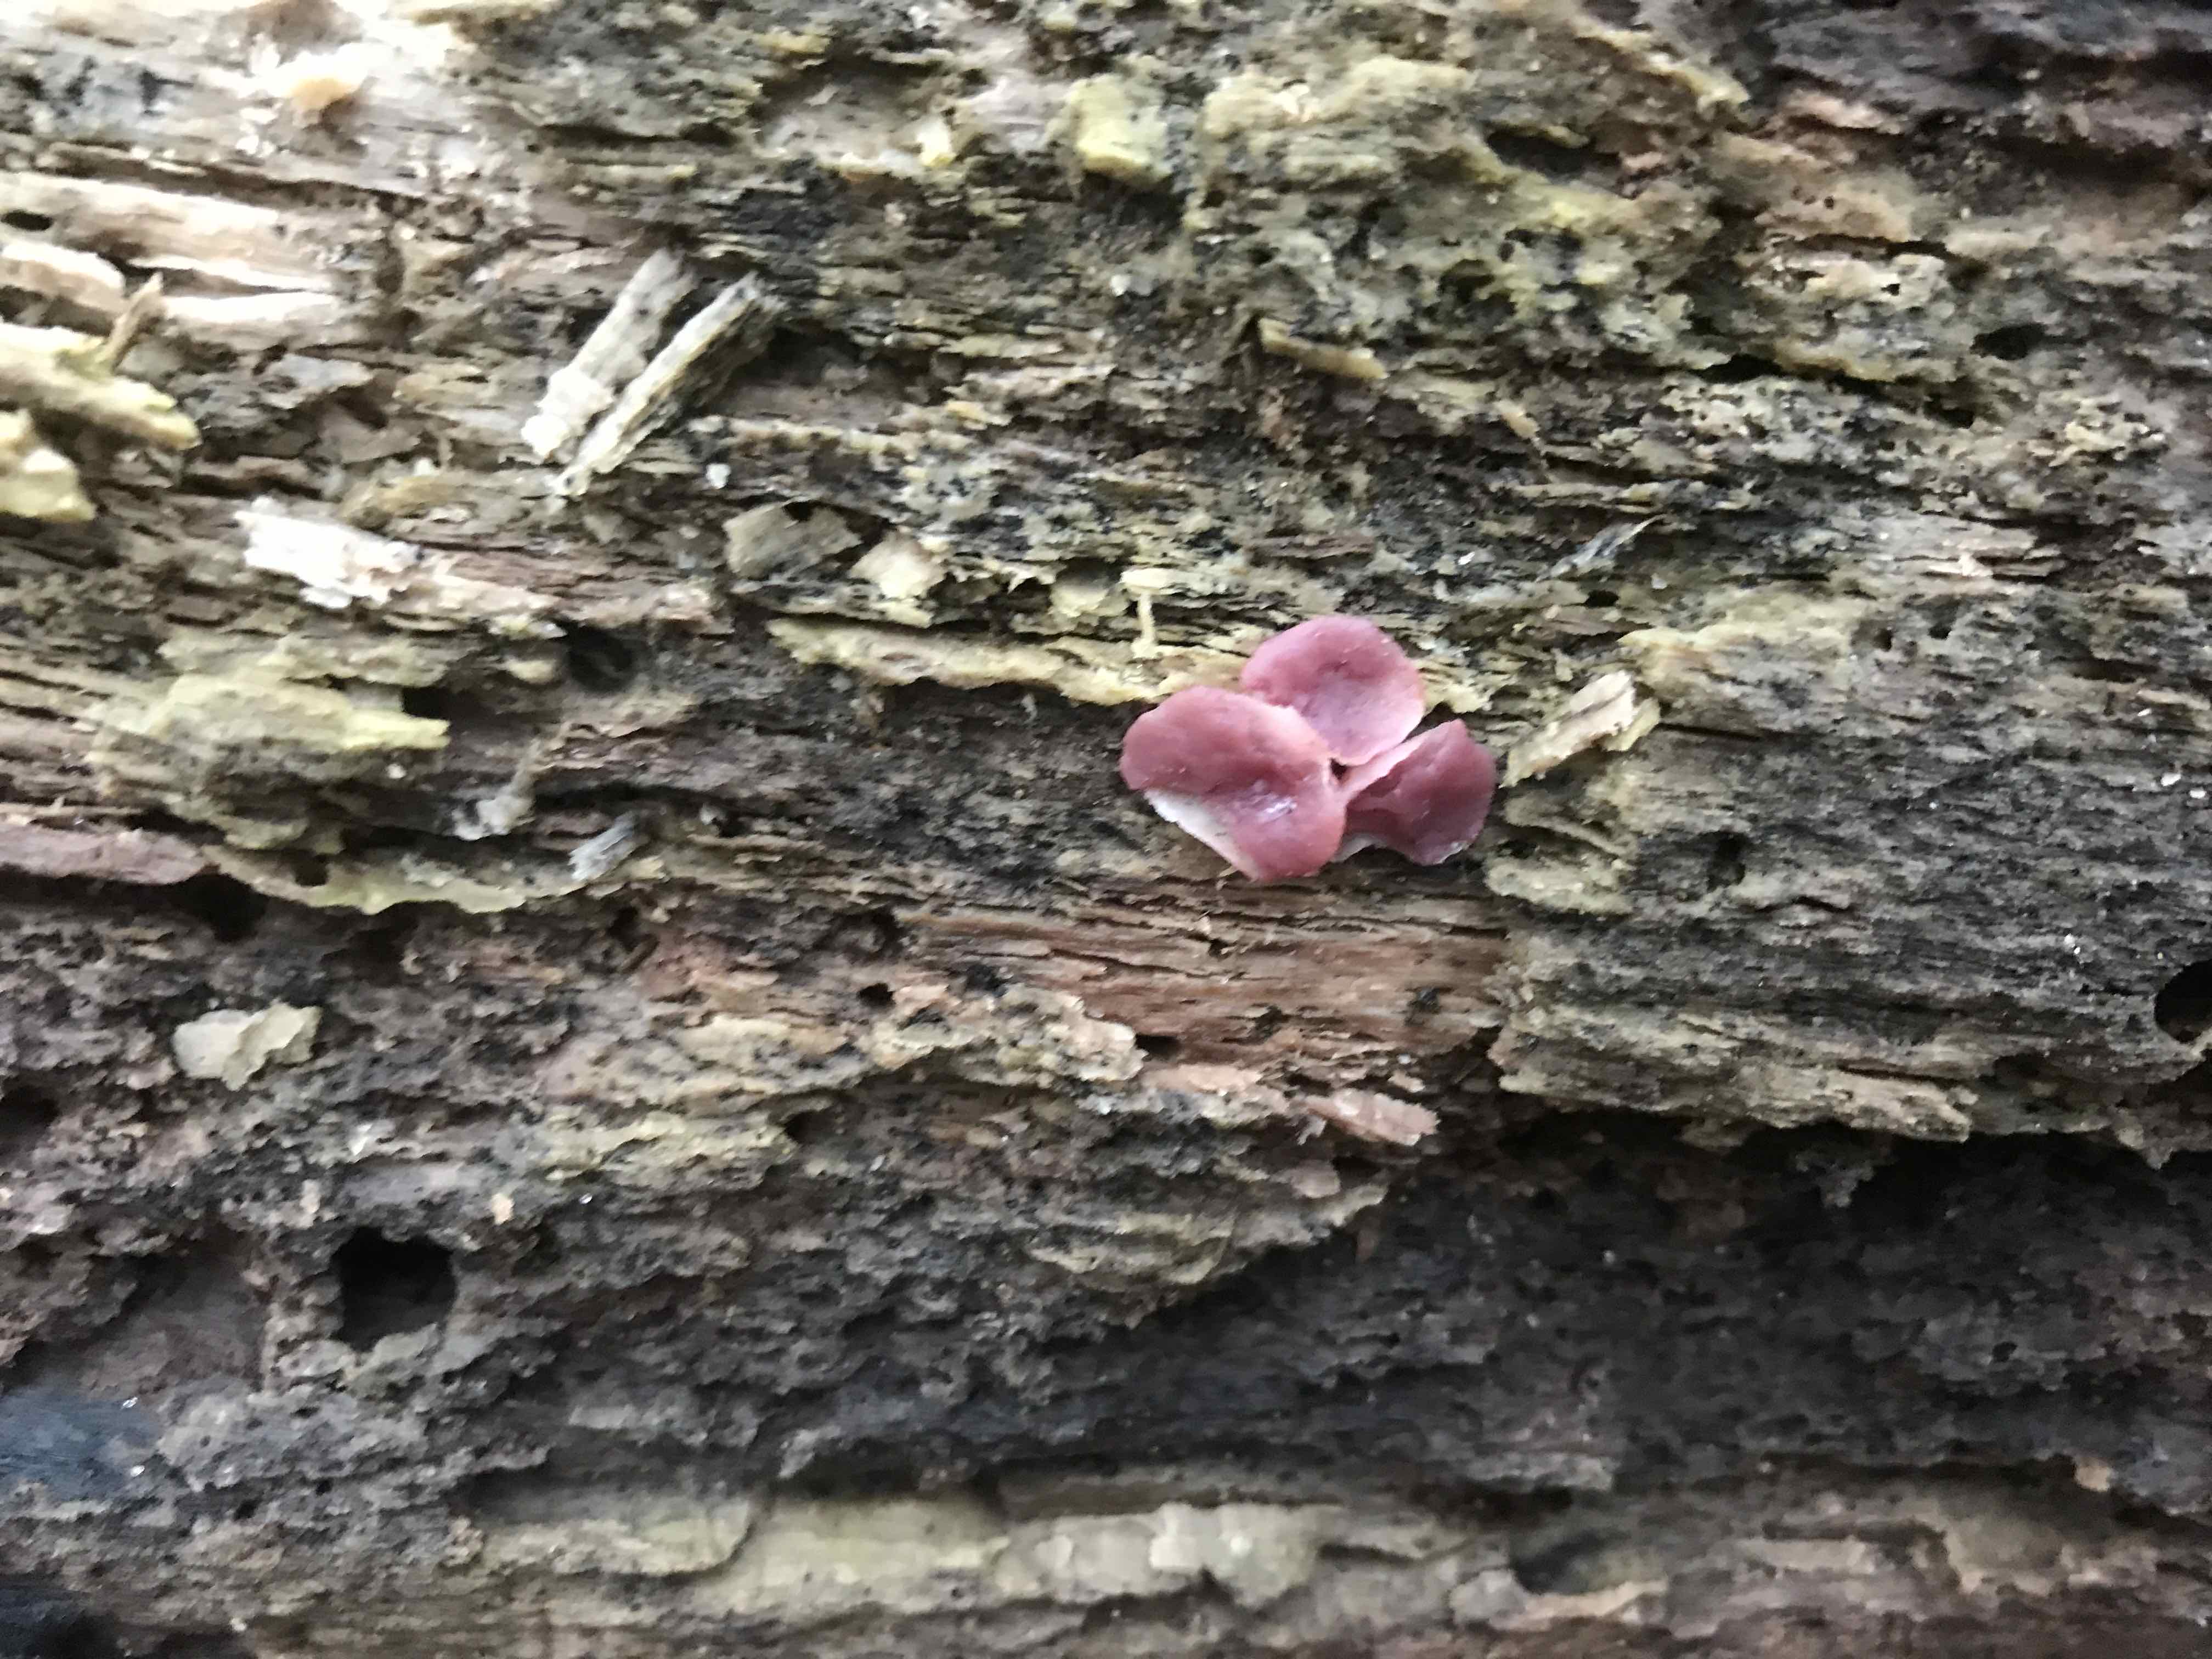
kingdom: Fungi
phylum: Ascomycota
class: Leotiomycetes
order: Helotiales
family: Gelatinodiscaceae
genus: Ascocoryne
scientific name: Ascocoryne cylichnium
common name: stor sejskive
